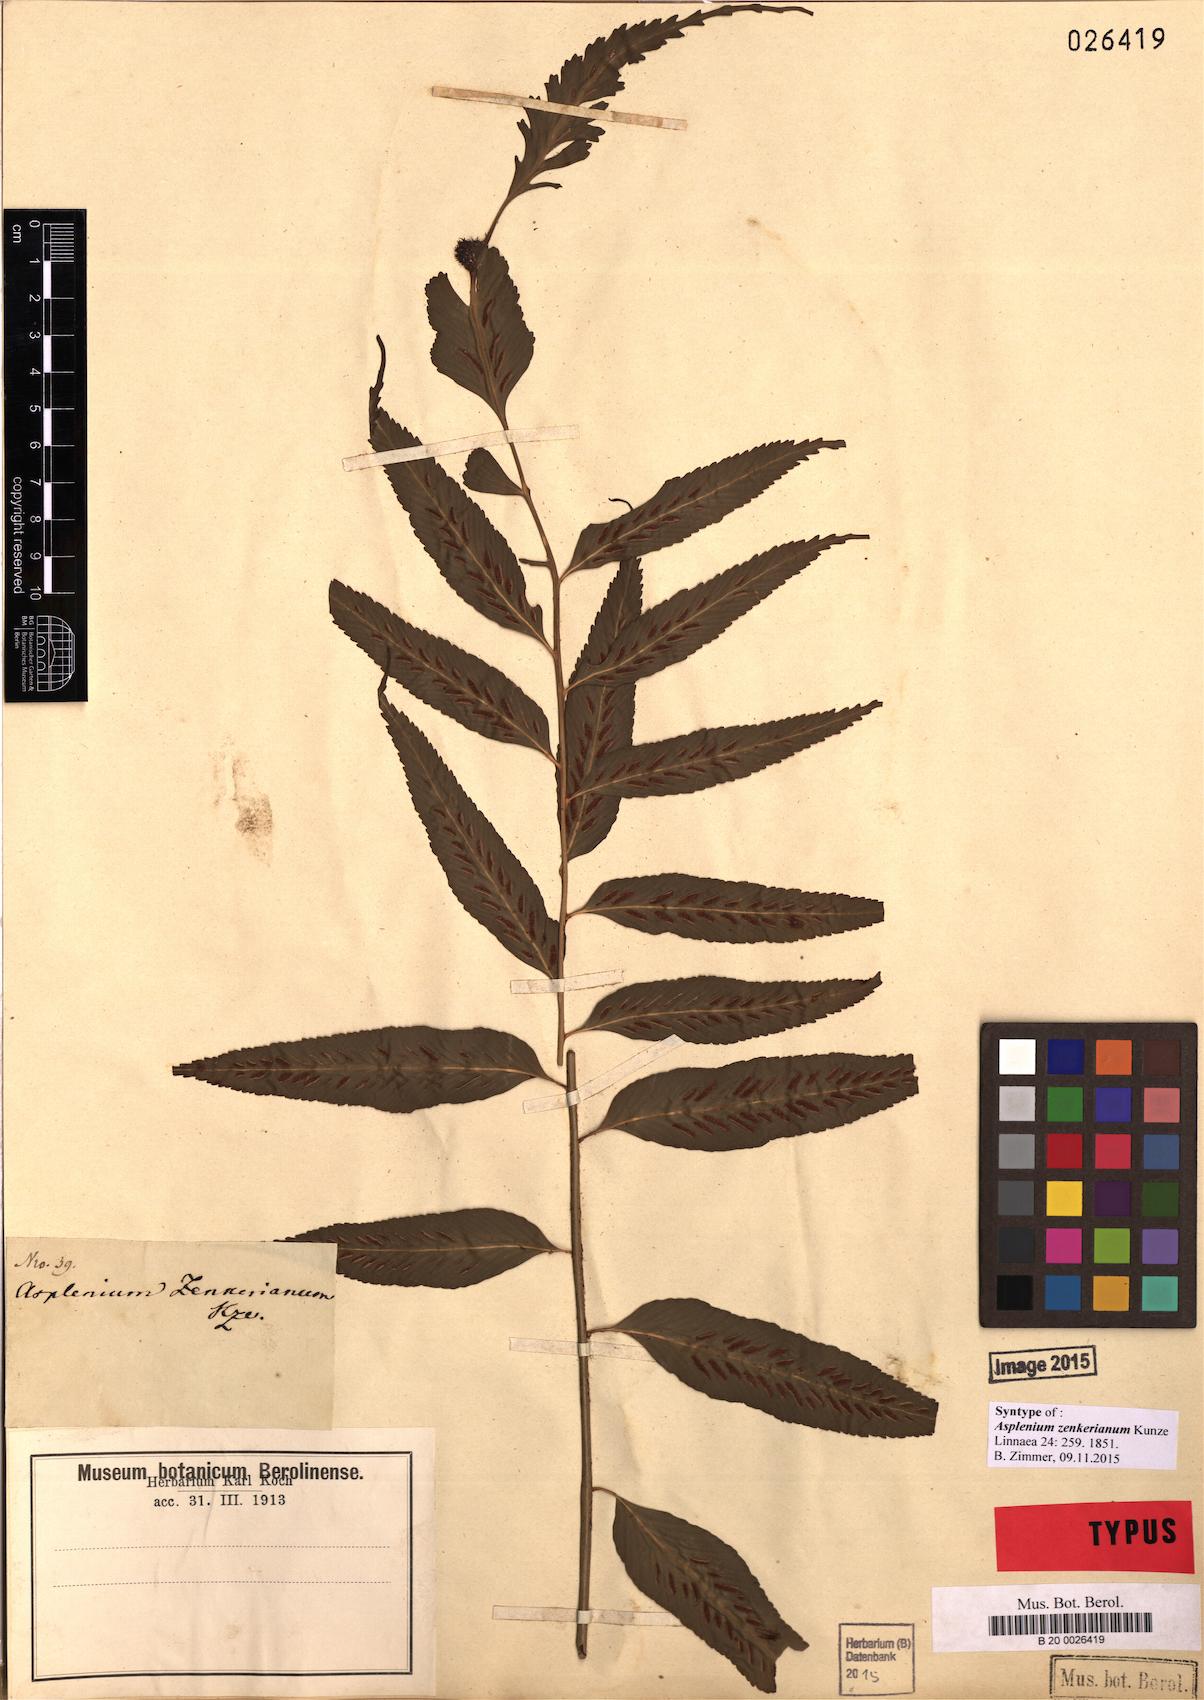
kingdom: Plantae
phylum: Tracheophyta
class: Polypodiopsida
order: Polypodiales
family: Aspleniaceae
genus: Asplenium
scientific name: Asplenium zenkerianum
